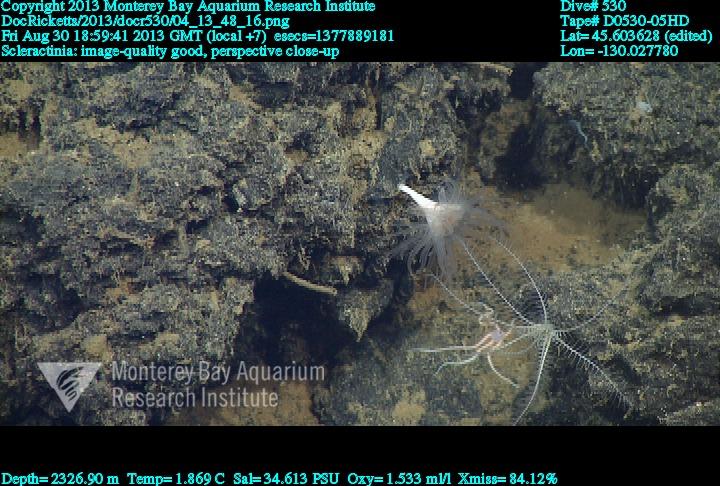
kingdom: Animalia
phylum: Cnidaria
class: Anthozoa
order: Scleractinia
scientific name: Scleractinia
